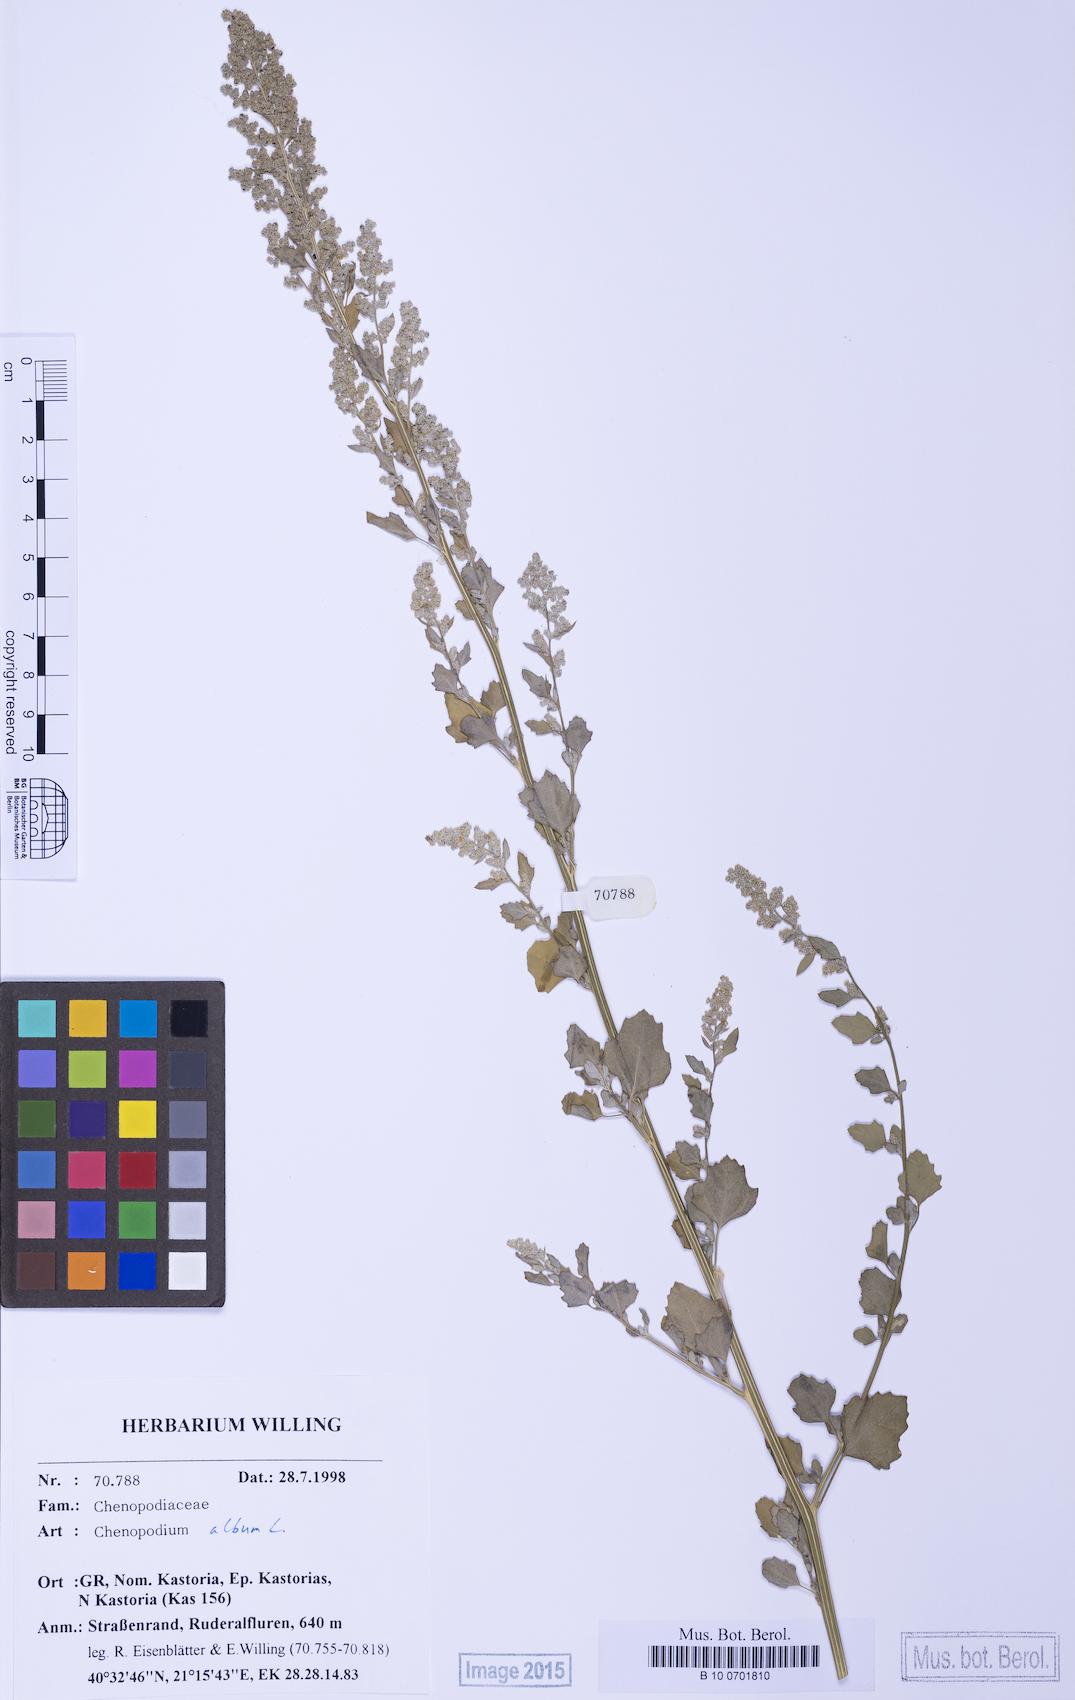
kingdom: Plantae
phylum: Tracheophyta
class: Magnoliopsida
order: Caryophyllales
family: Amaranthaceae
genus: Chenopodium
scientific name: Chenopodium opulifolium
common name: Grey goosefoot
